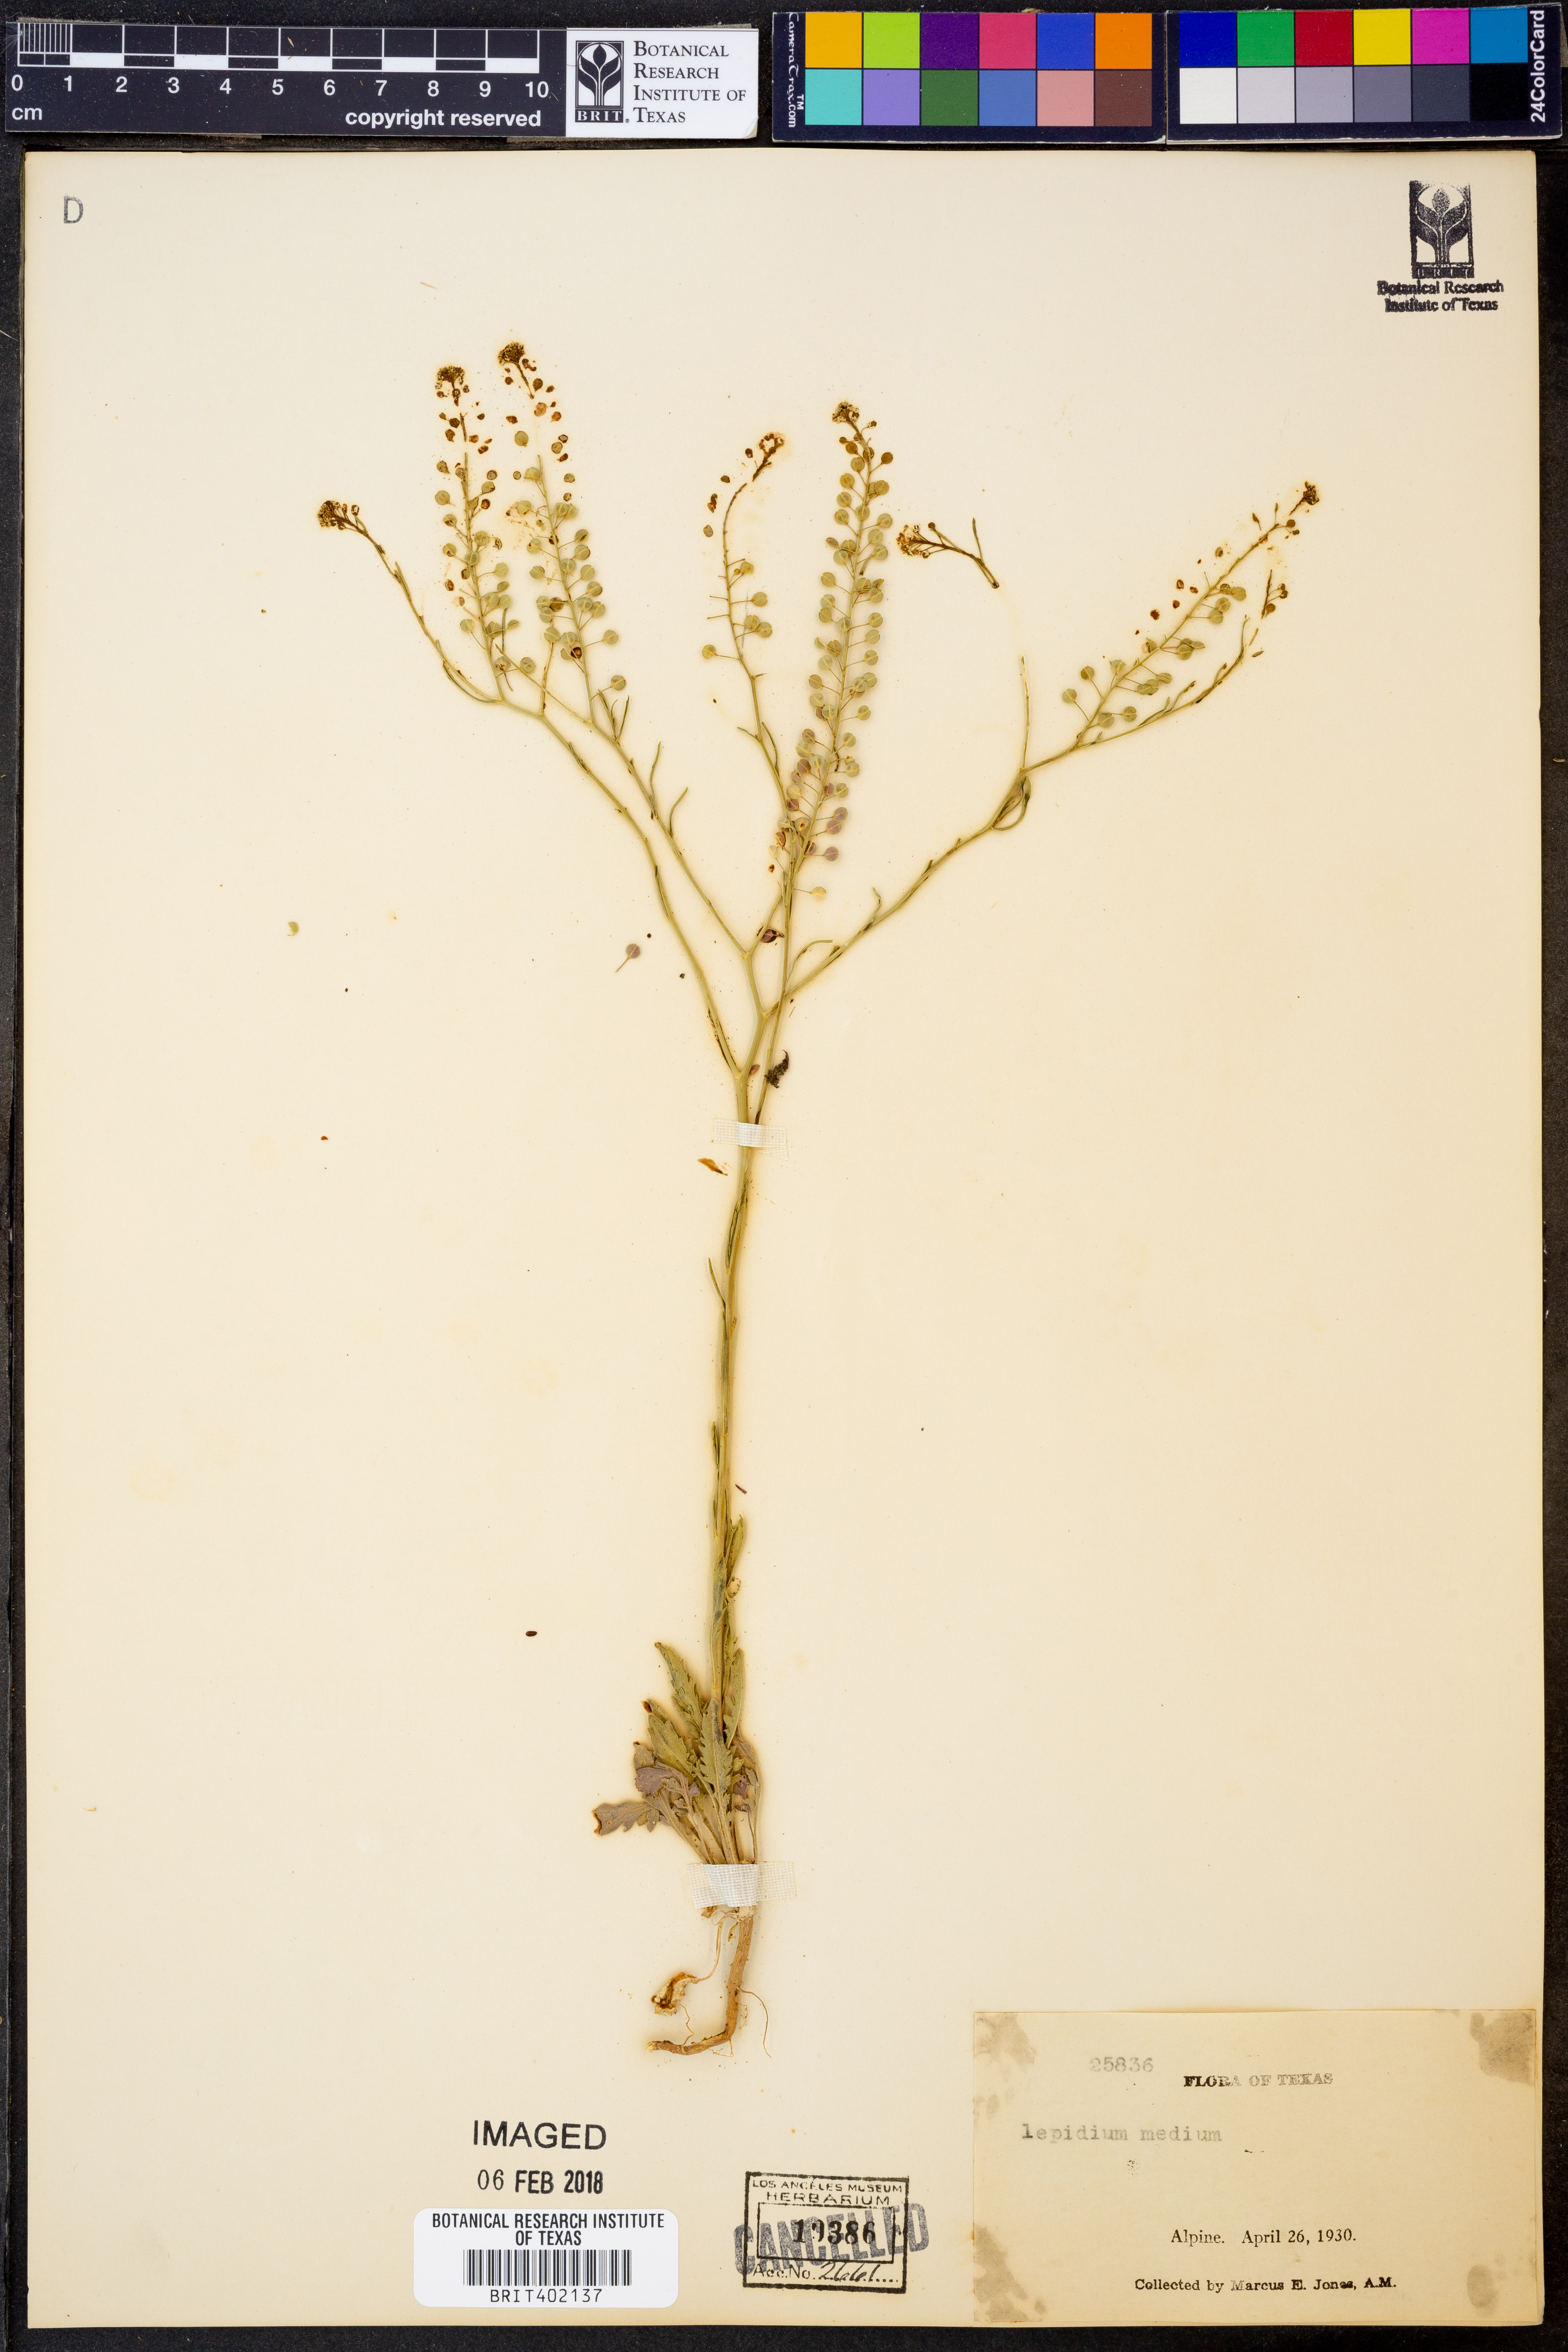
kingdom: Plantae
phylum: Tracheophyta
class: Magnoliopsida
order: Brassicales
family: Brassicaceae
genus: Lepidium
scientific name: Lepidium virginicum
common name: Least pepperwort
